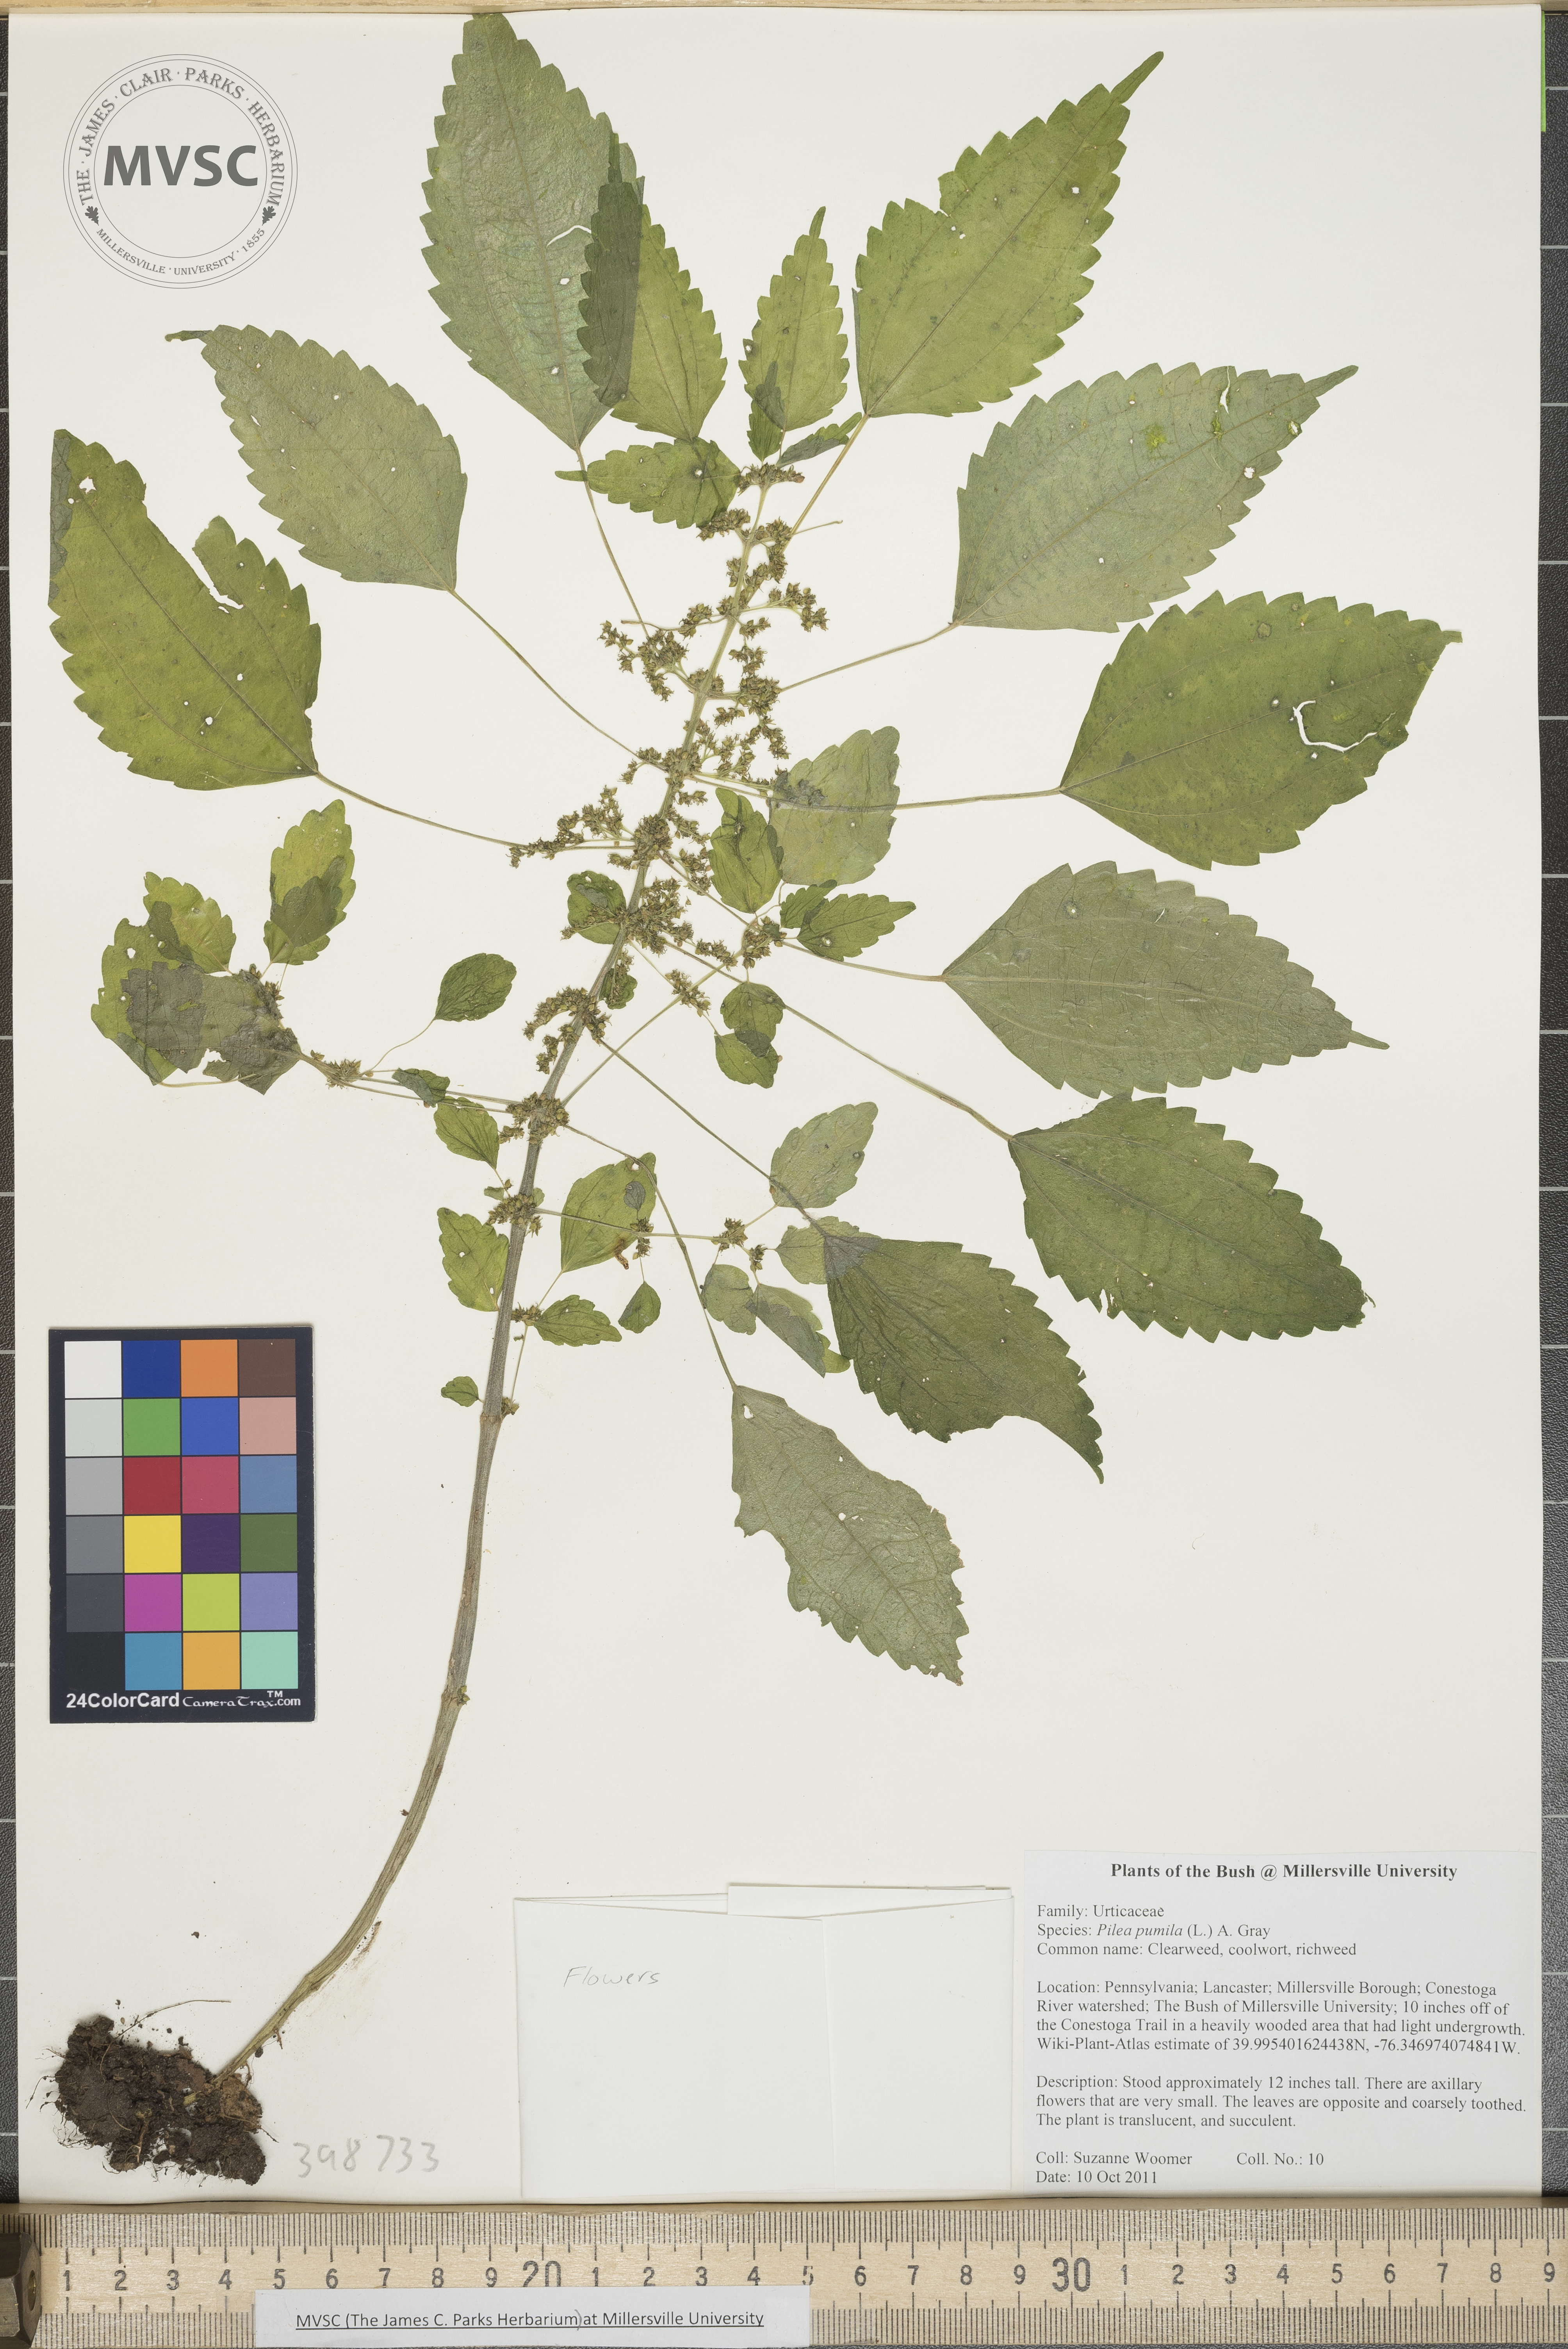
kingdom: Plantae
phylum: Tracheophyta
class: Magnoliopsida
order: Rosales
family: Urticaceae
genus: Pilea
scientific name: Pilea pumila
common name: Clearweed
